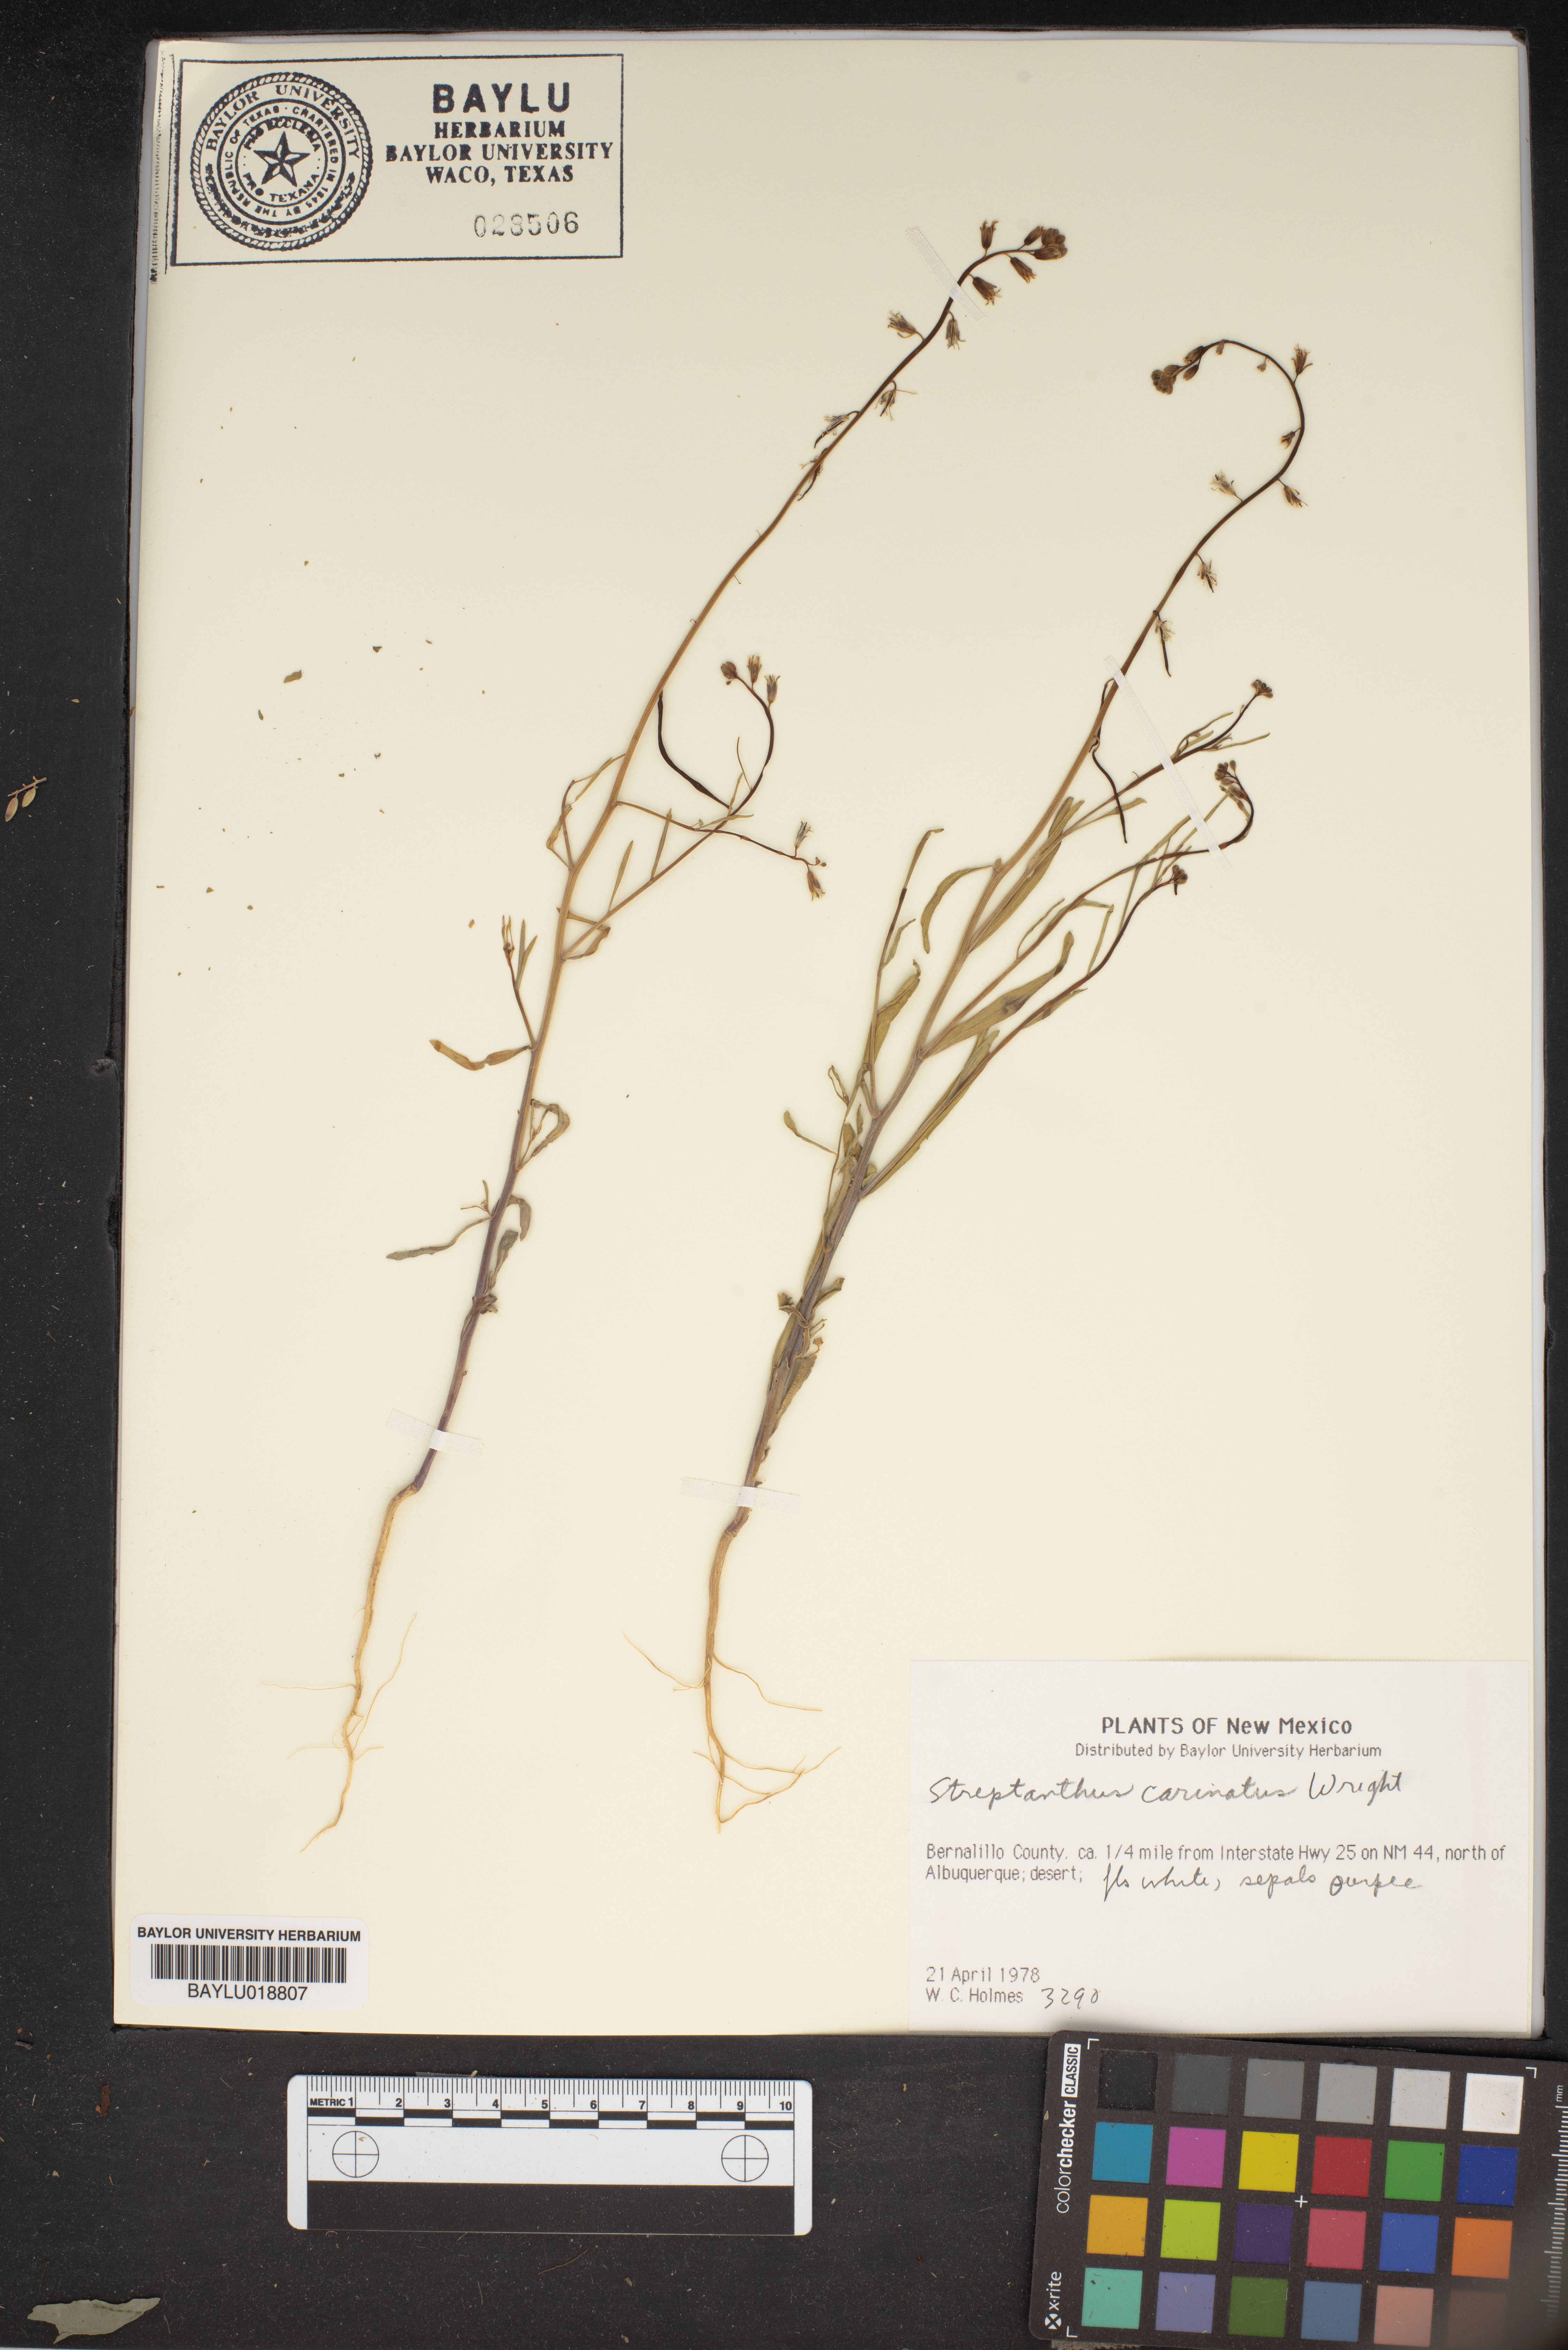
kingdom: Plantae
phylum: Tracheophyta
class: Magnoliopsida
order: Brassicales
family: Brassicaceae
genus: Streptanthus
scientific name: Streptanthus carinatus
